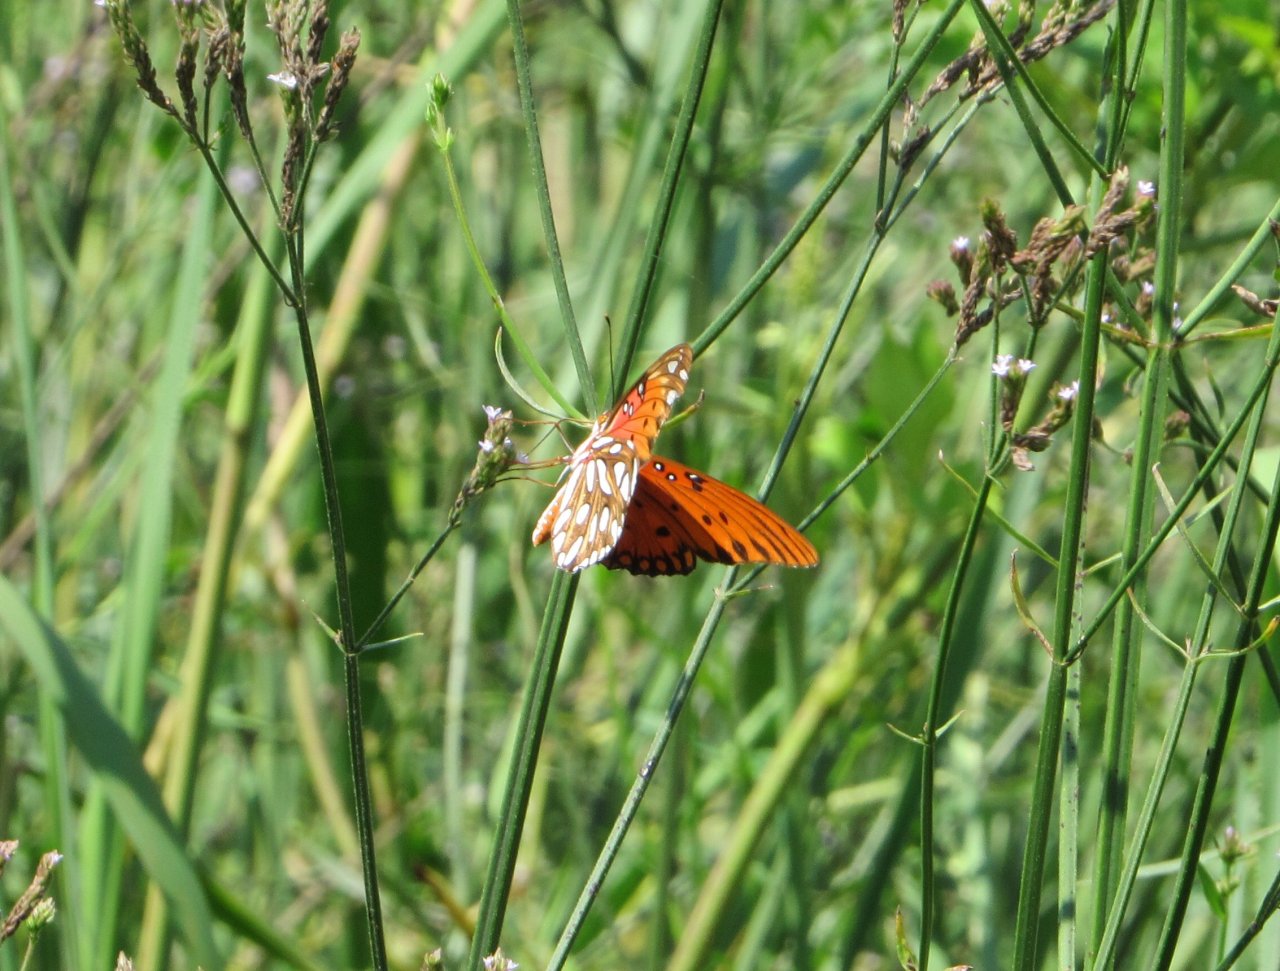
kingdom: Animalia
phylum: Arthropoda
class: Insecta
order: Lepidoptera
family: Nymphalidae
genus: Dione
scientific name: Dione vanillae
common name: Gulf Fritillary
